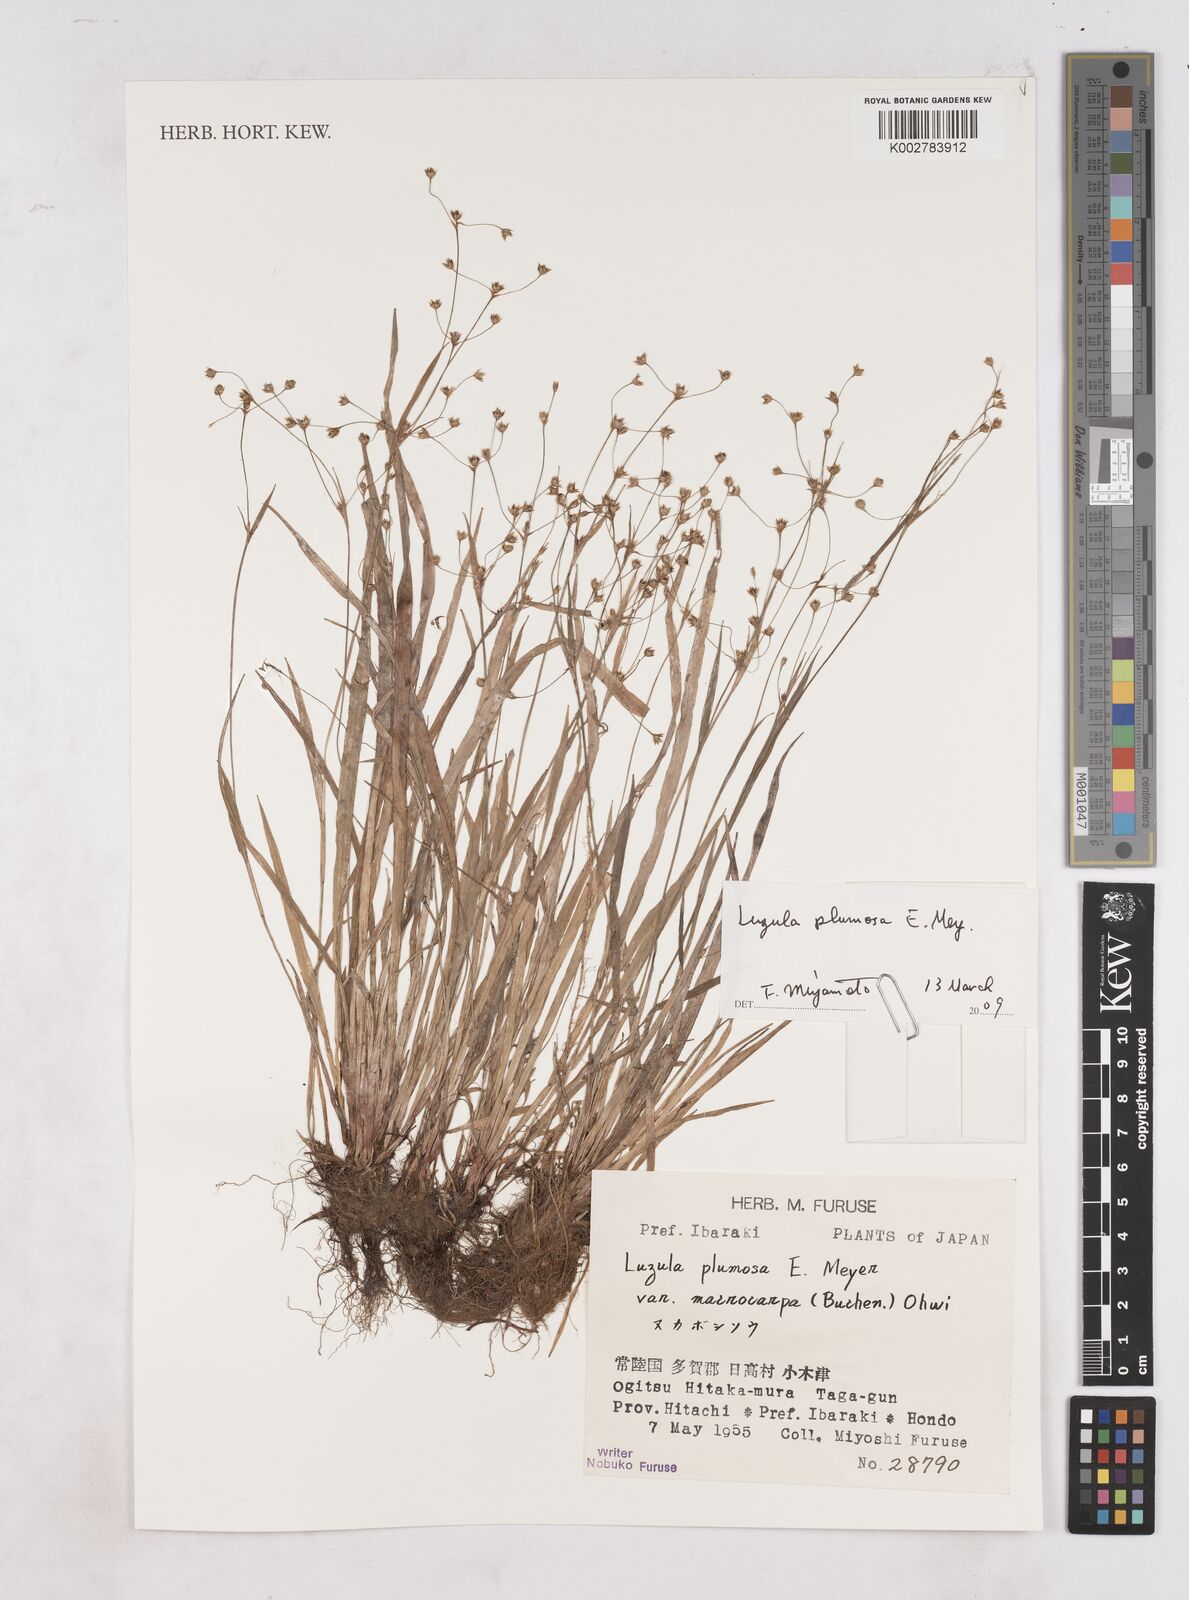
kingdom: Plantae
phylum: Tracheophyta
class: Liliopsida
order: Poales
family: Juncaceae
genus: Luzula
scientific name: Luzula plumosa
